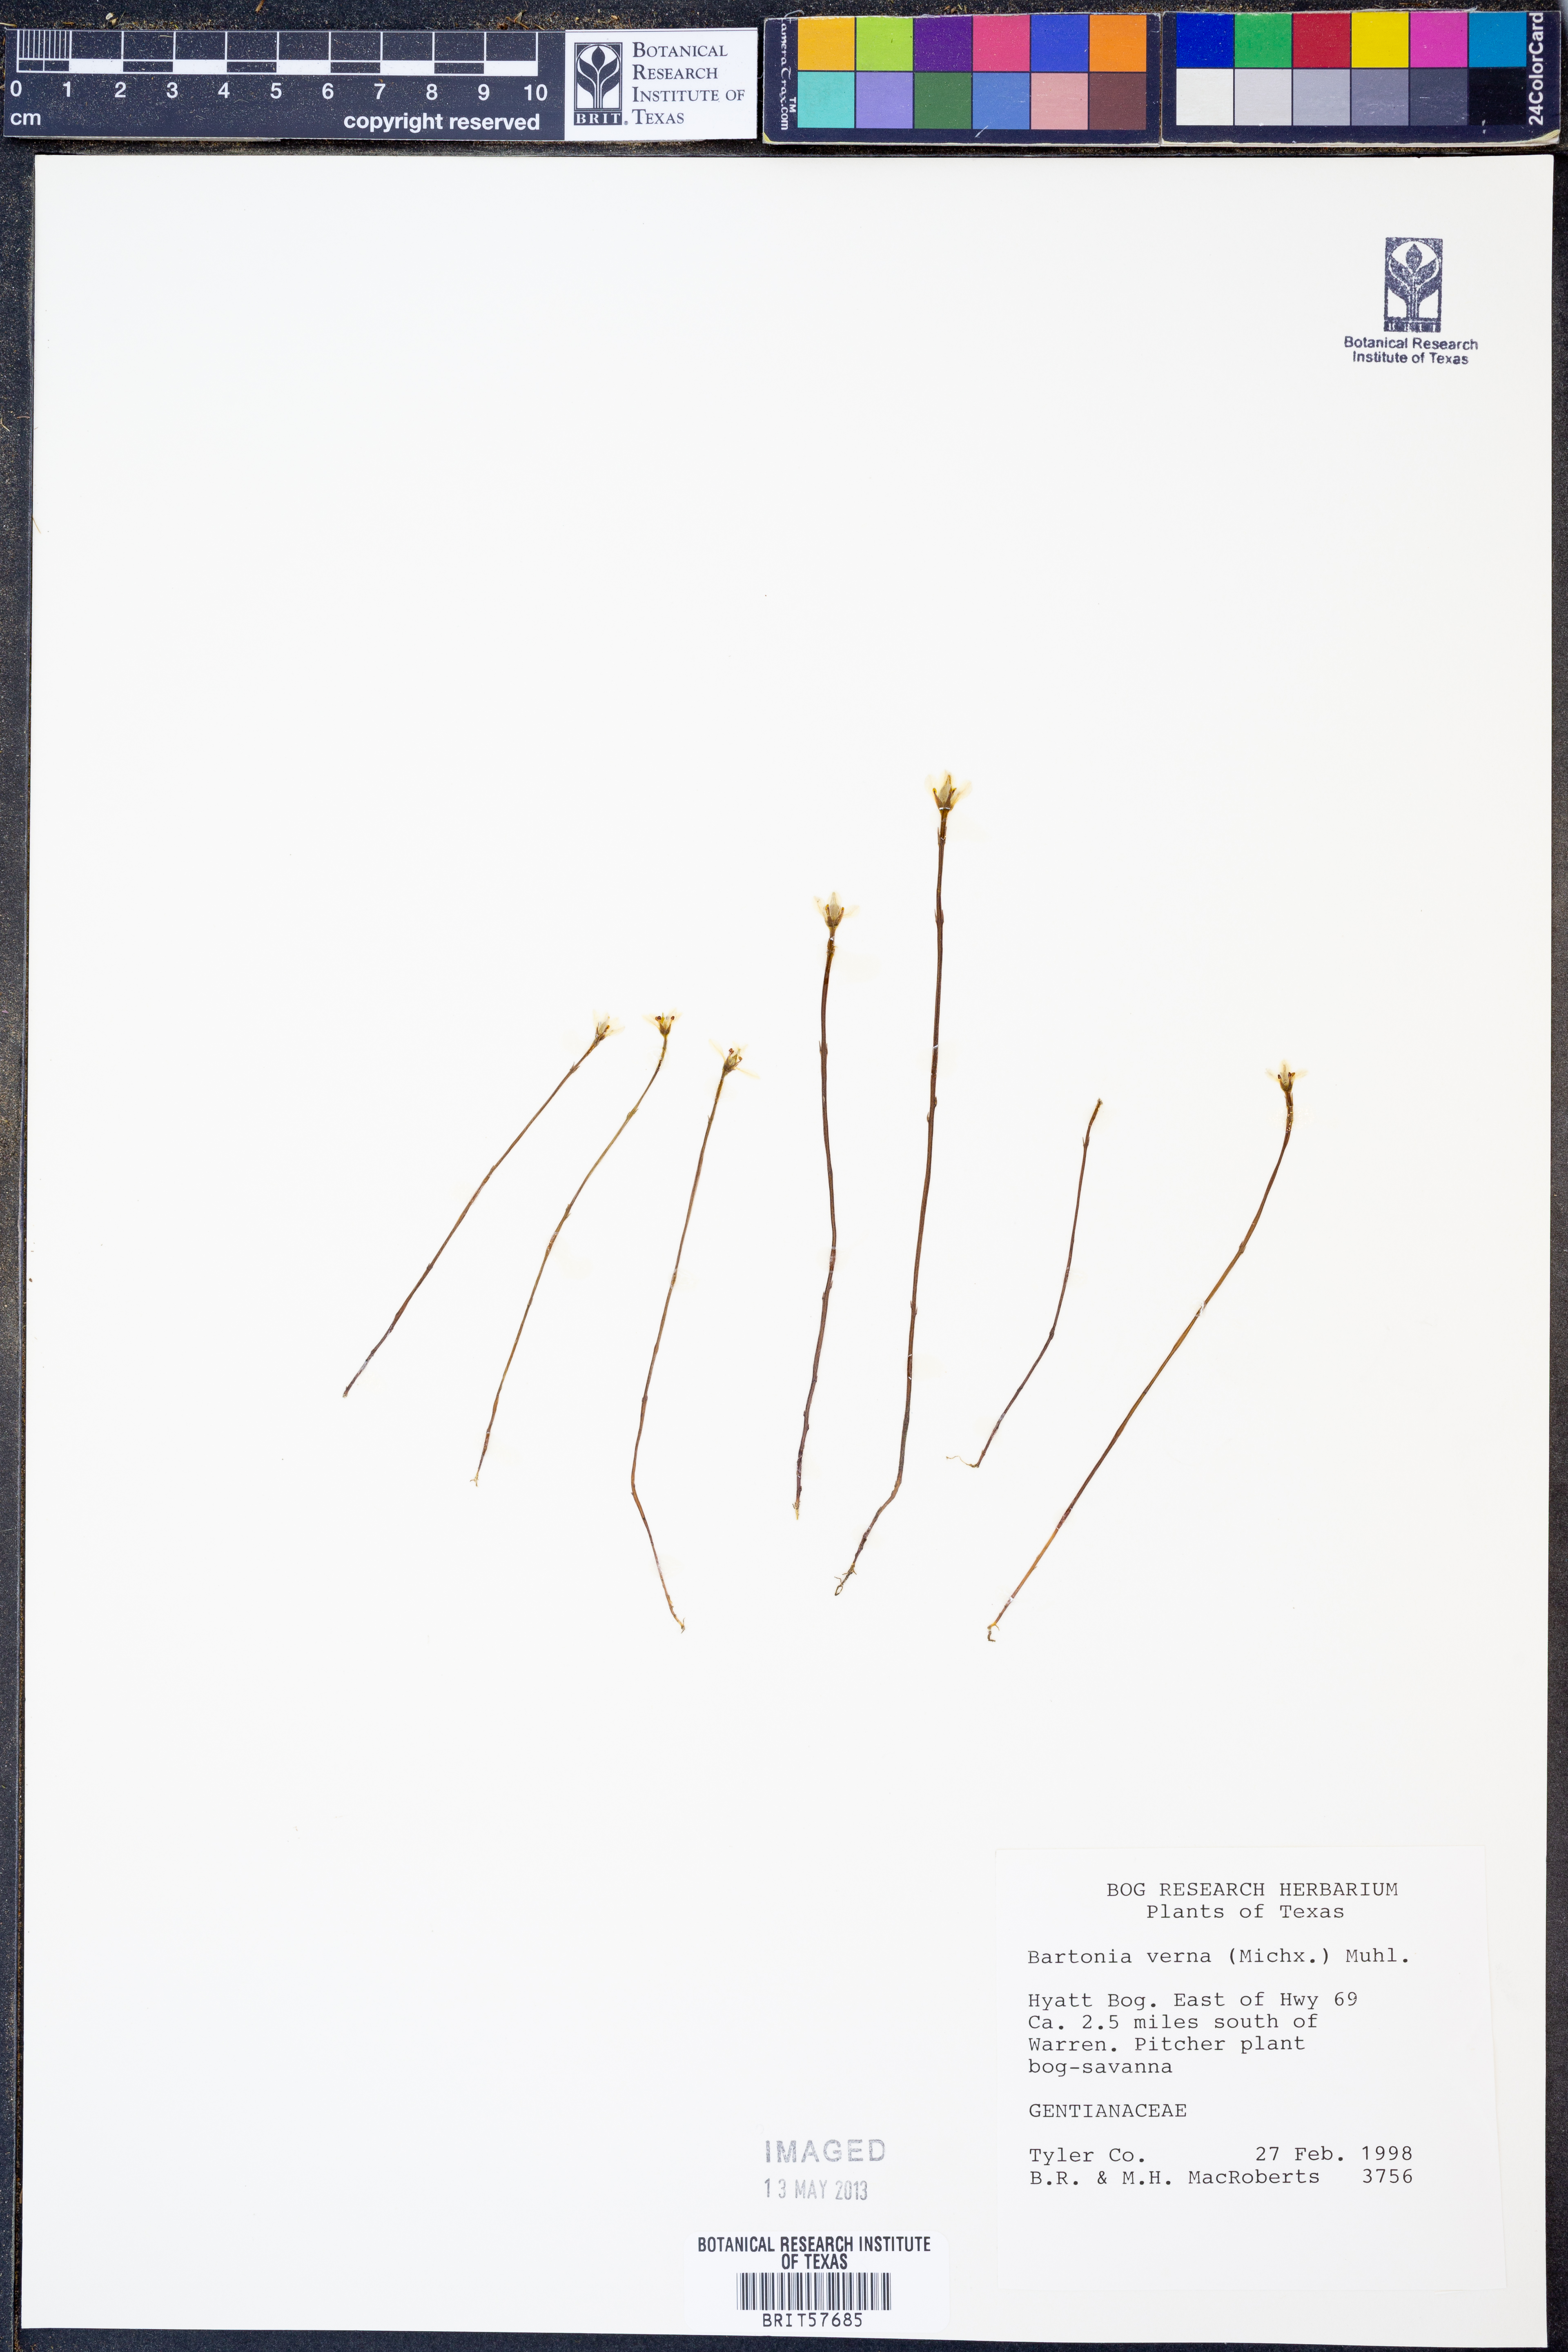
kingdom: Plantae
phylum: Tracheophyta
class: Magnoliopsida
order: Gentianales
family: Gentianaceae
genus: Bartonia
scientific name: Bartonia verna
